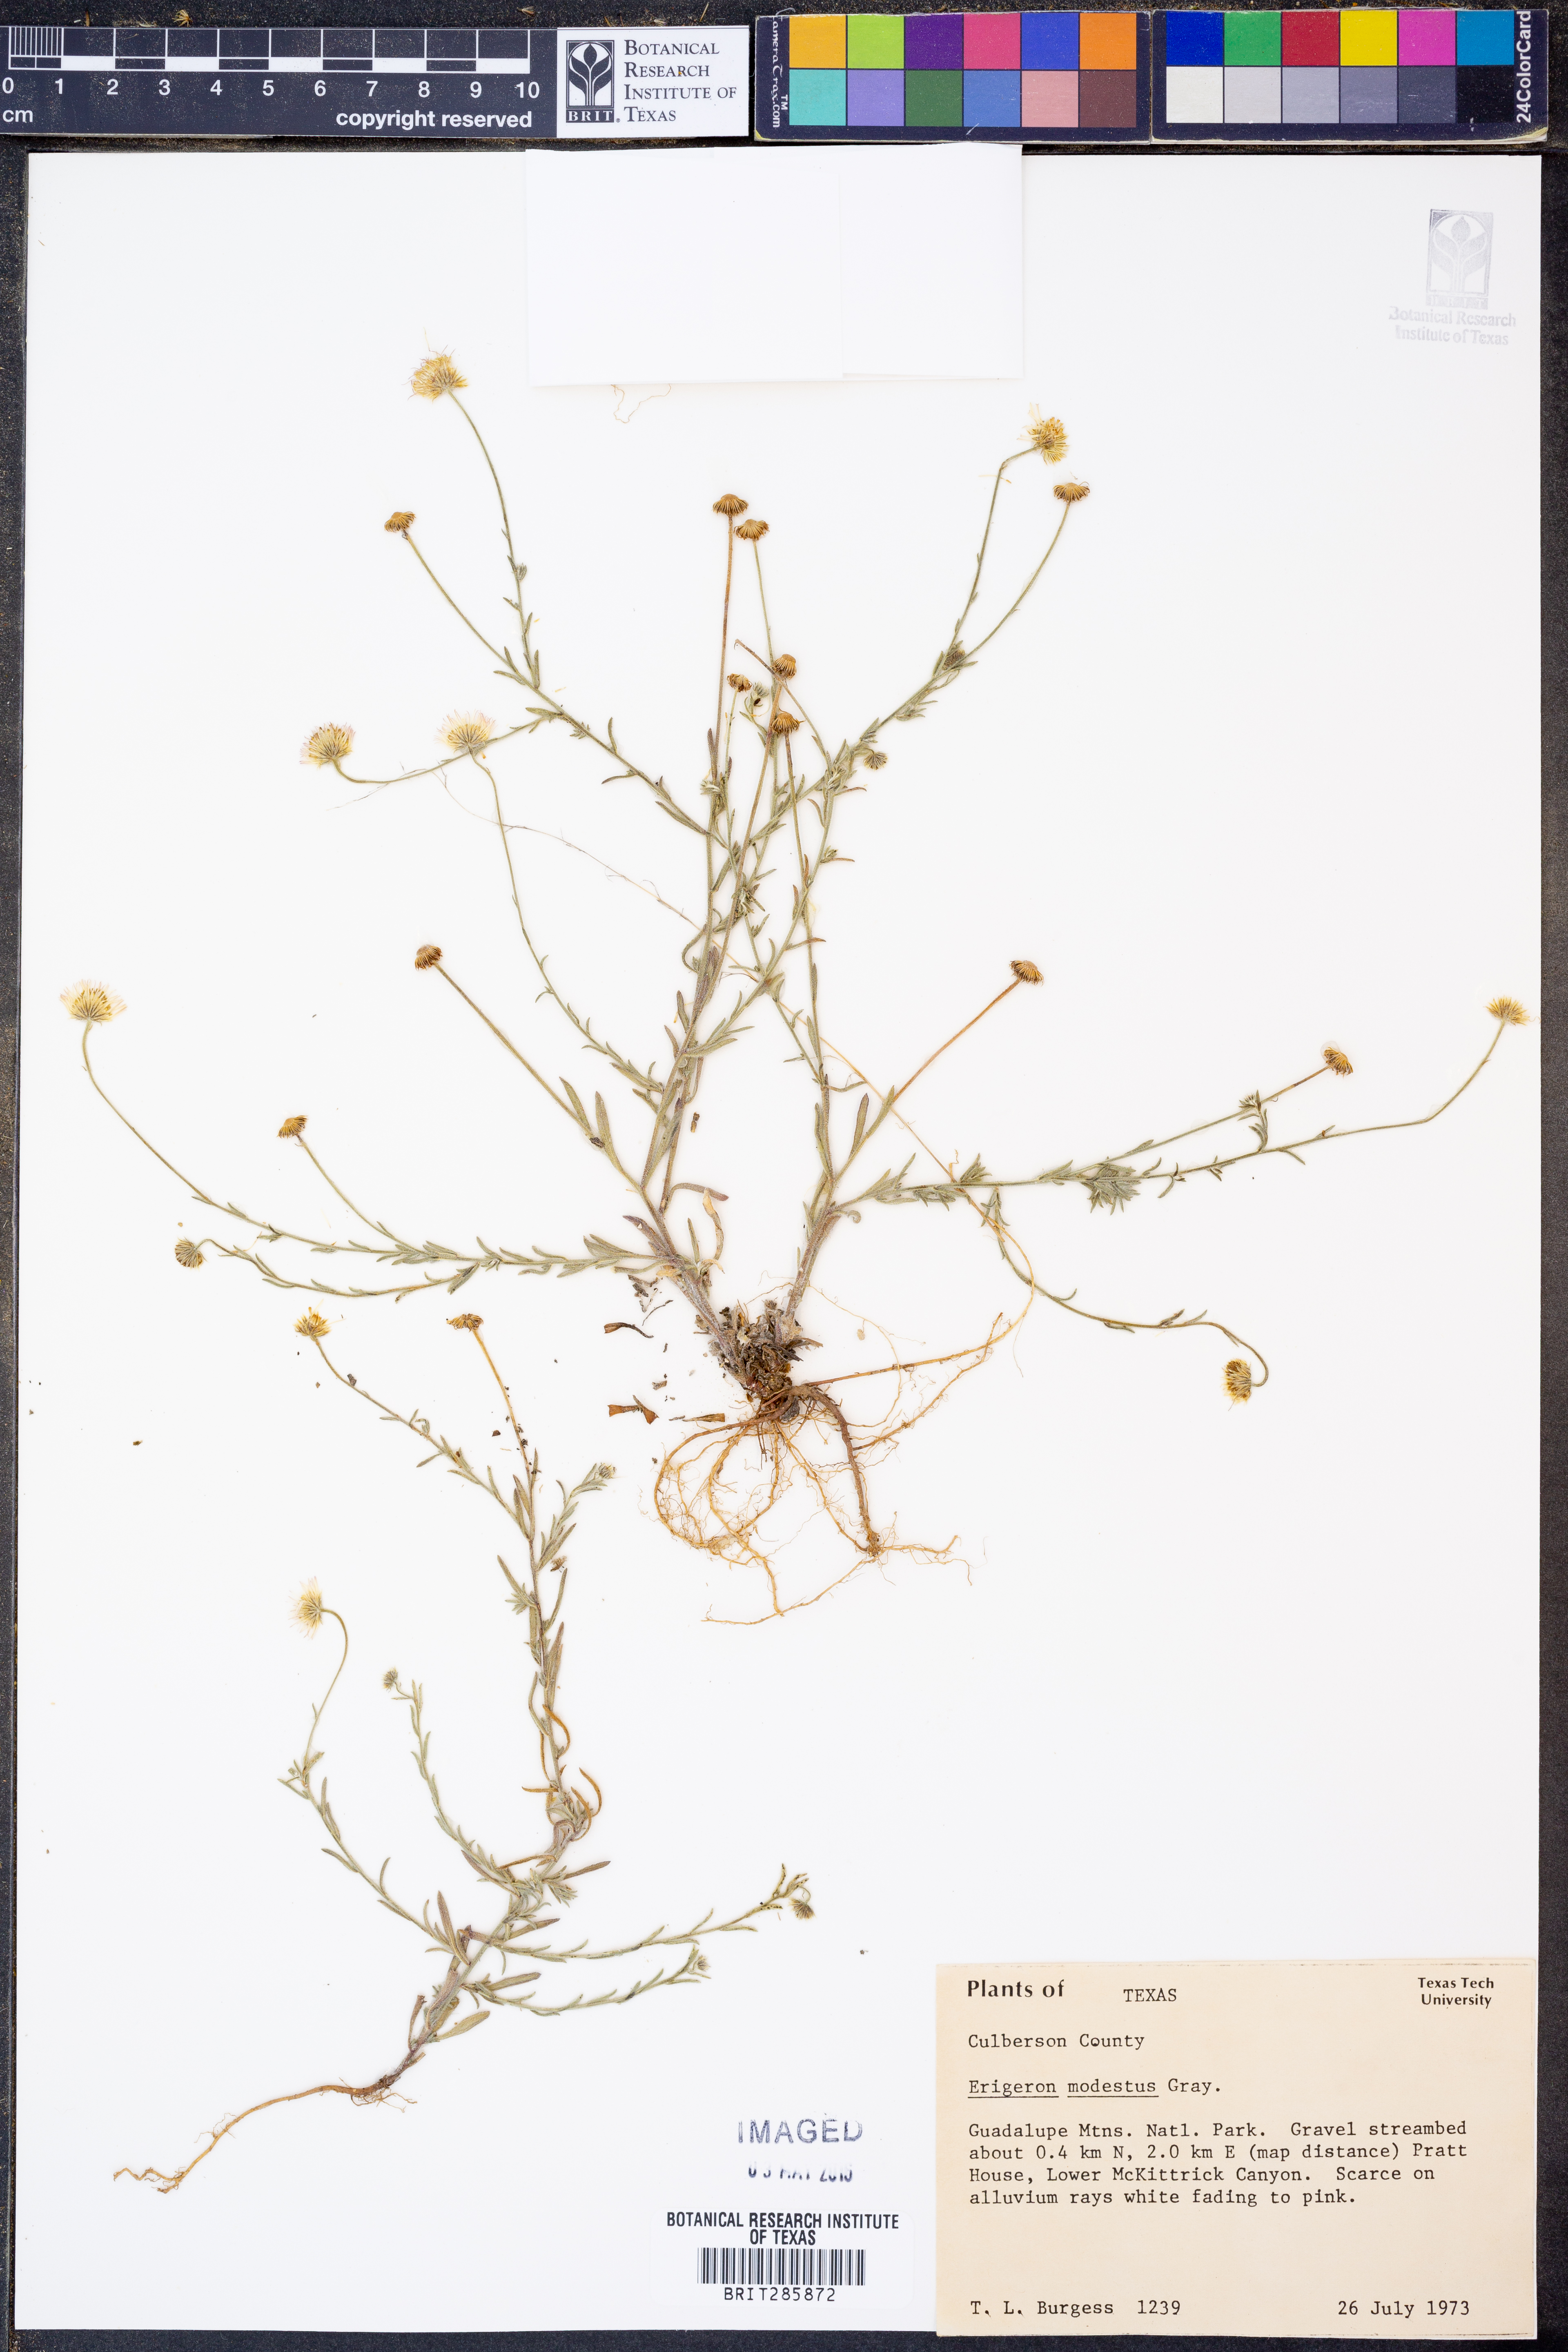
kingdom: Plantae
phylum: Tracheophyta
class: Magnoliopsida
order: Asterales
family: Asteraceae
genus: Erigeron
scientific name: Erigeron modestus
